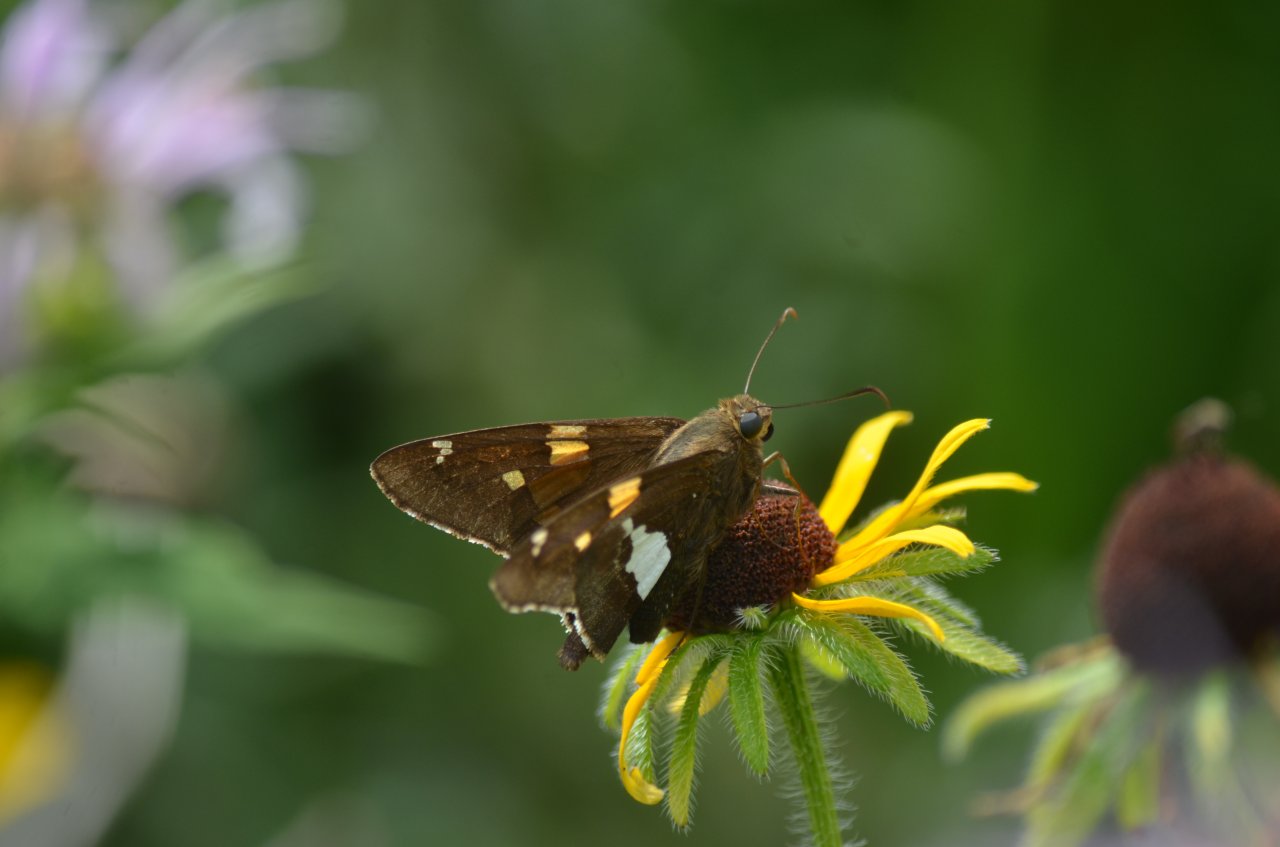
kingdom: Animalia
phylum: Arthropoda
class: Insecta
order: Lepidoptera
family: Hesperiidae
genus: Epargyreus
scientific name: Epargyreus clarus
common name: Silver-spotted Skipper
